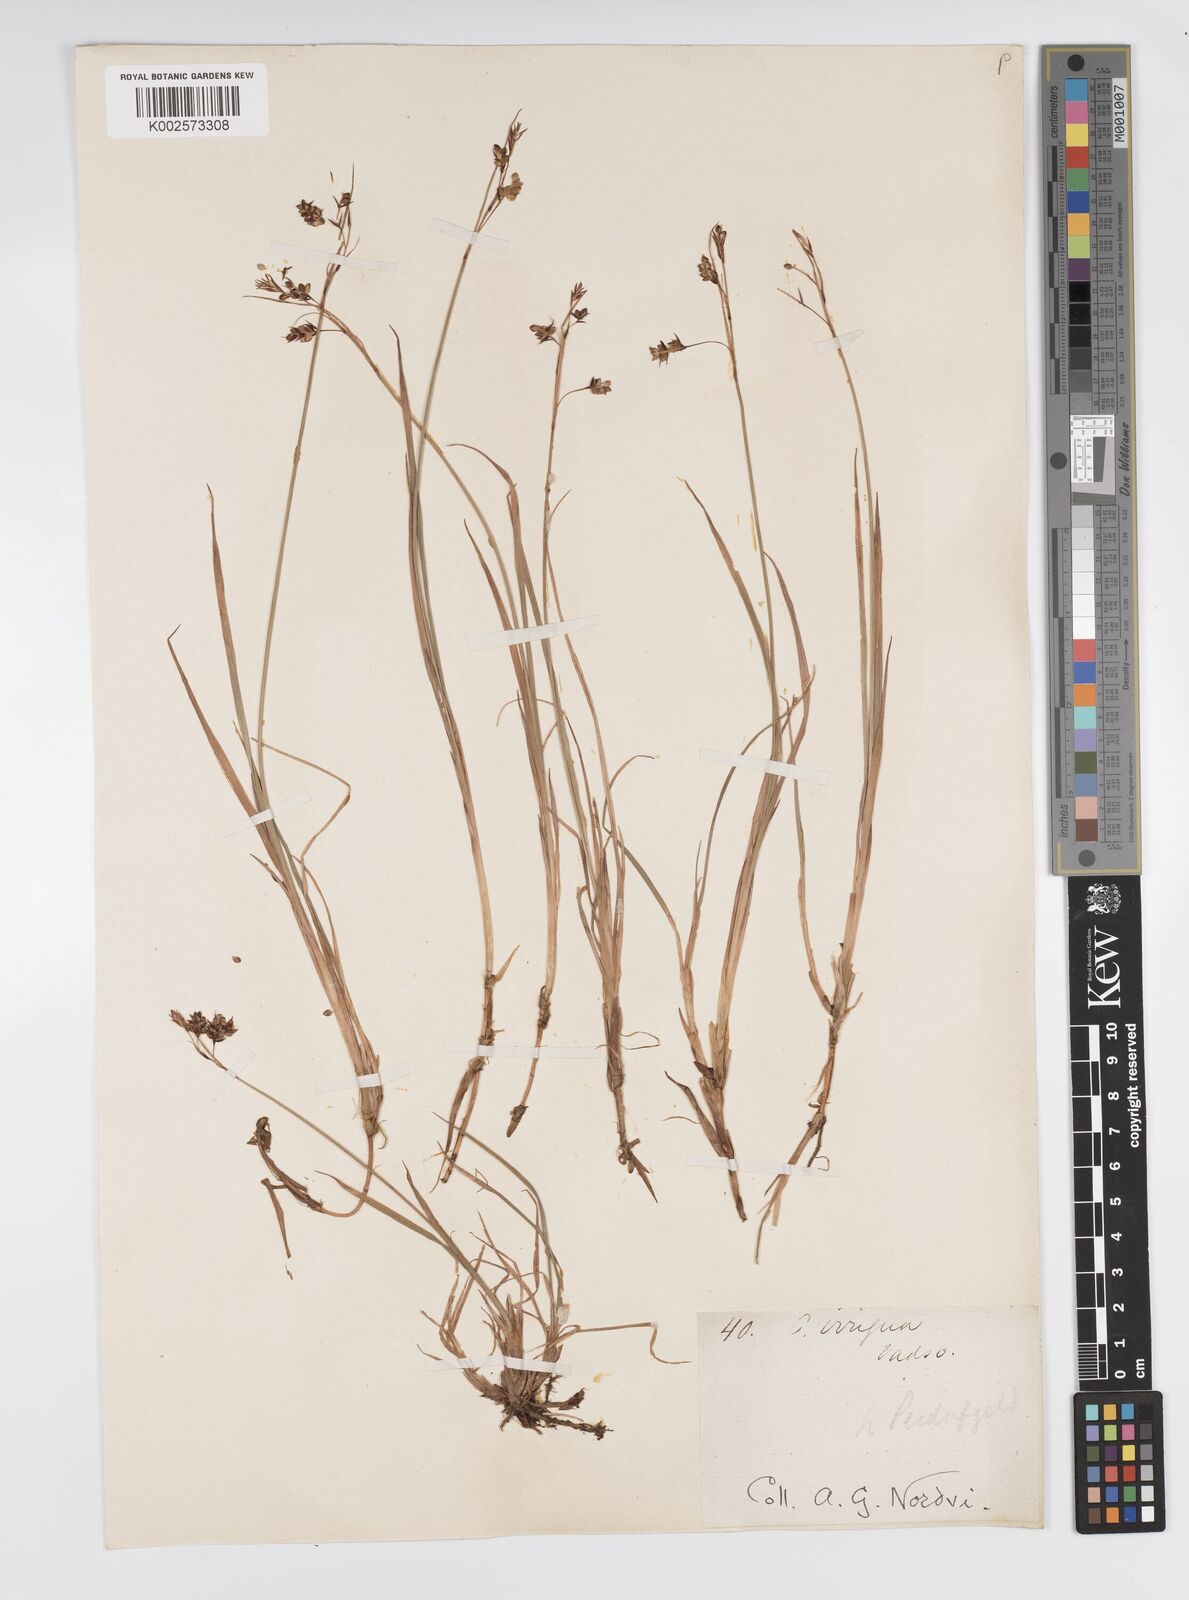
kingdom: Plantae
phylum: Tracheophyta
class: Liliopsida
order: Poales
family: Cyperaceae
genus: Carex
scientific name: Carex magellanica
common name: Bog sedge
